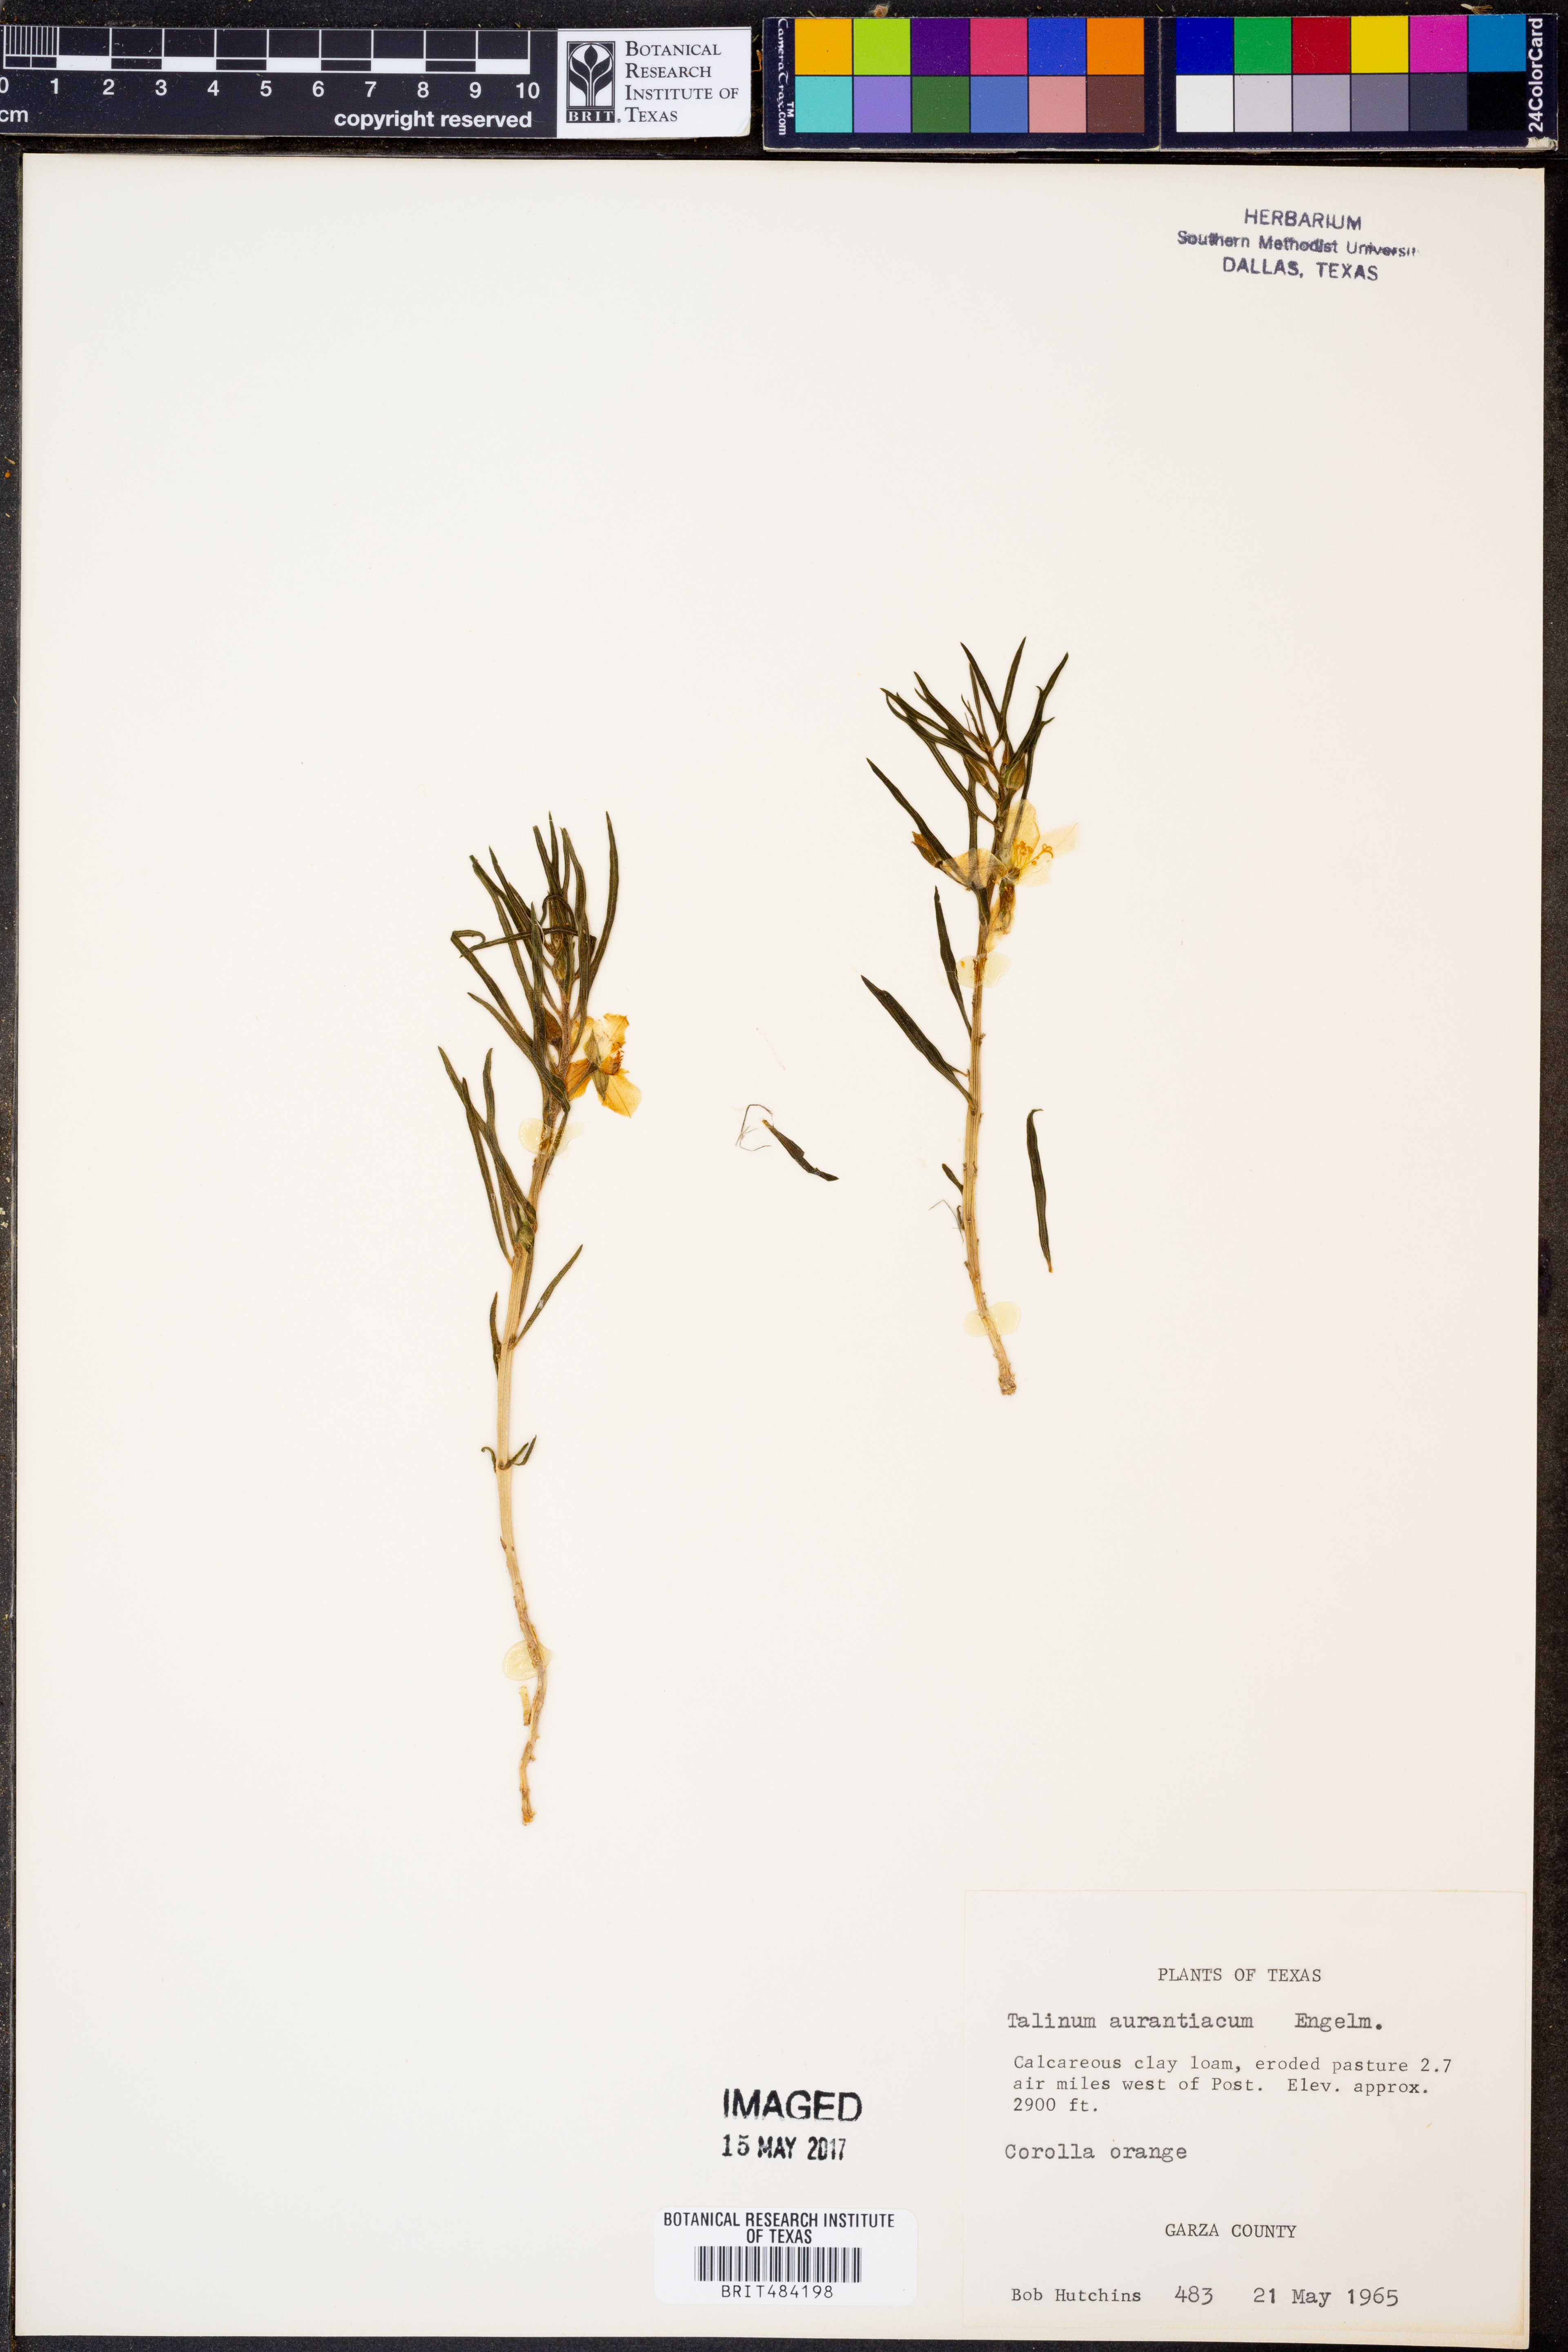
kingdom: Plantae
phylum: Tracheophyta
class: Magnoliopsida
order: Caryophyllales
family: Montiaceae
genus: Phemeranthus
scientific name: Phemeranthus aurantiacus
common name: Orange fameflower
